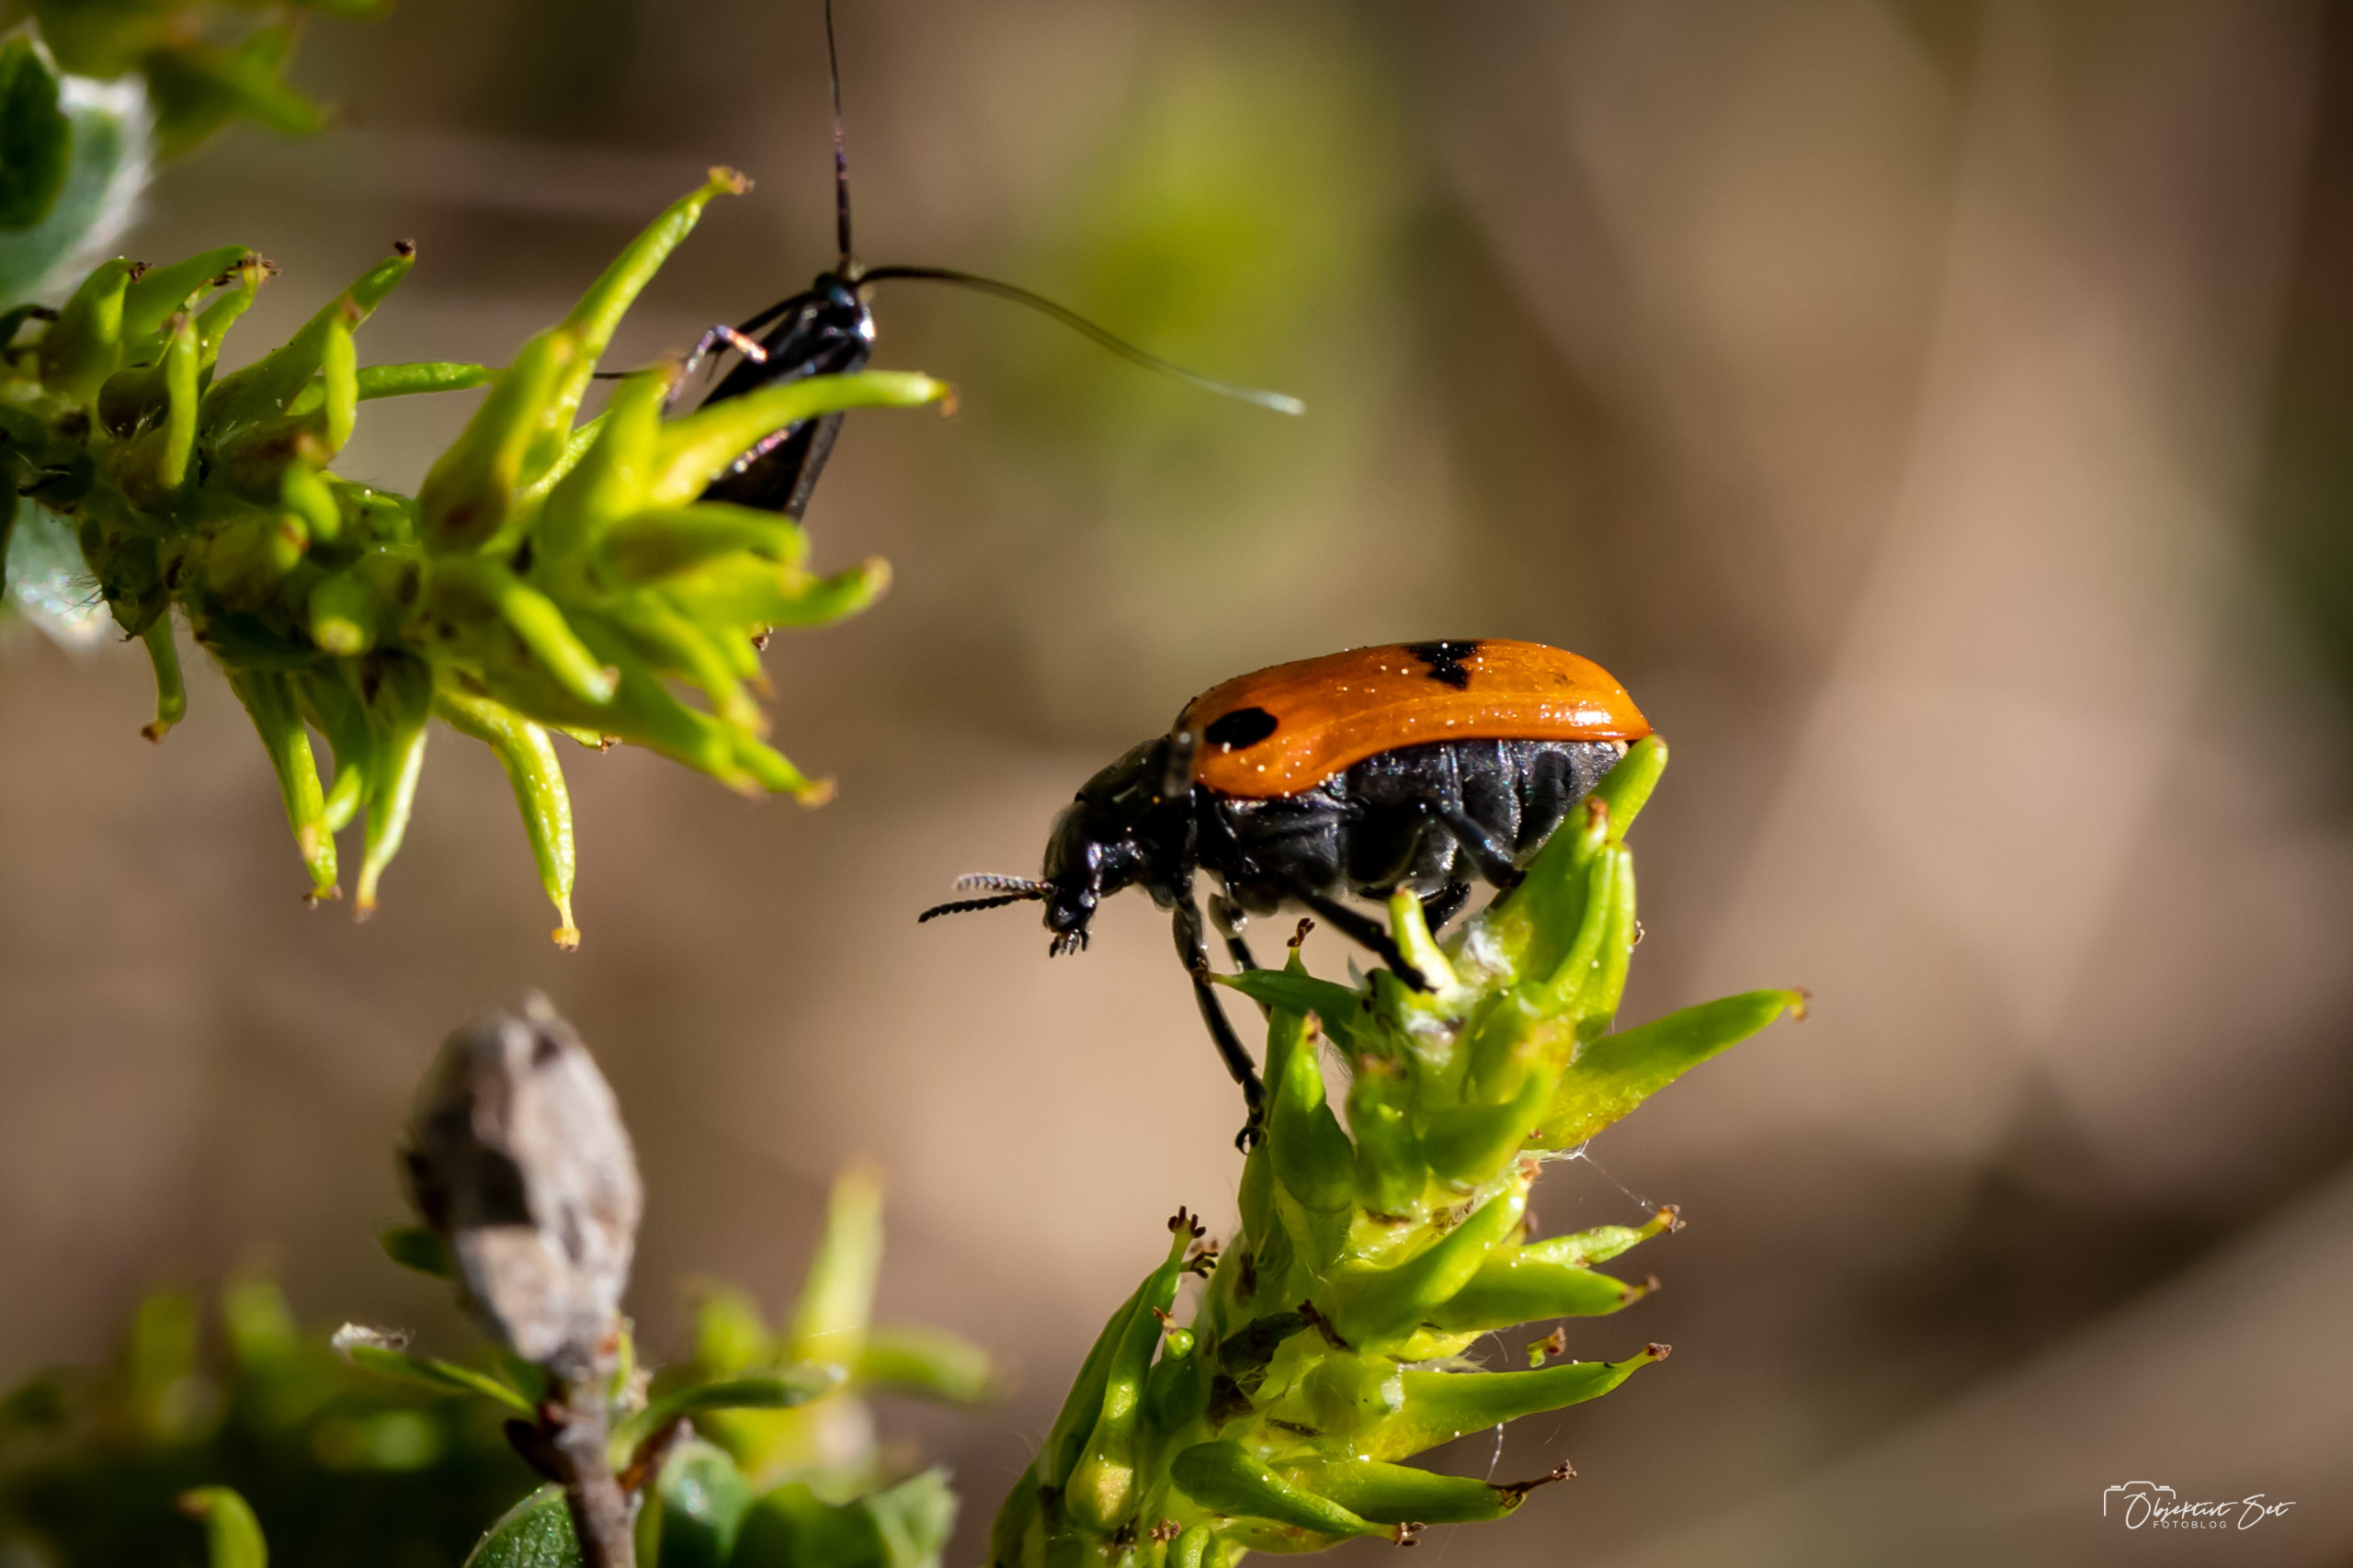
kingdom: Animalia
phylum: Arthropoda
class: Insecta
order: Coleoptera
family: Chrysomelidae
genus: Clytra
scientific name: Clytra quadripunctata
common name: Myrebladbille
